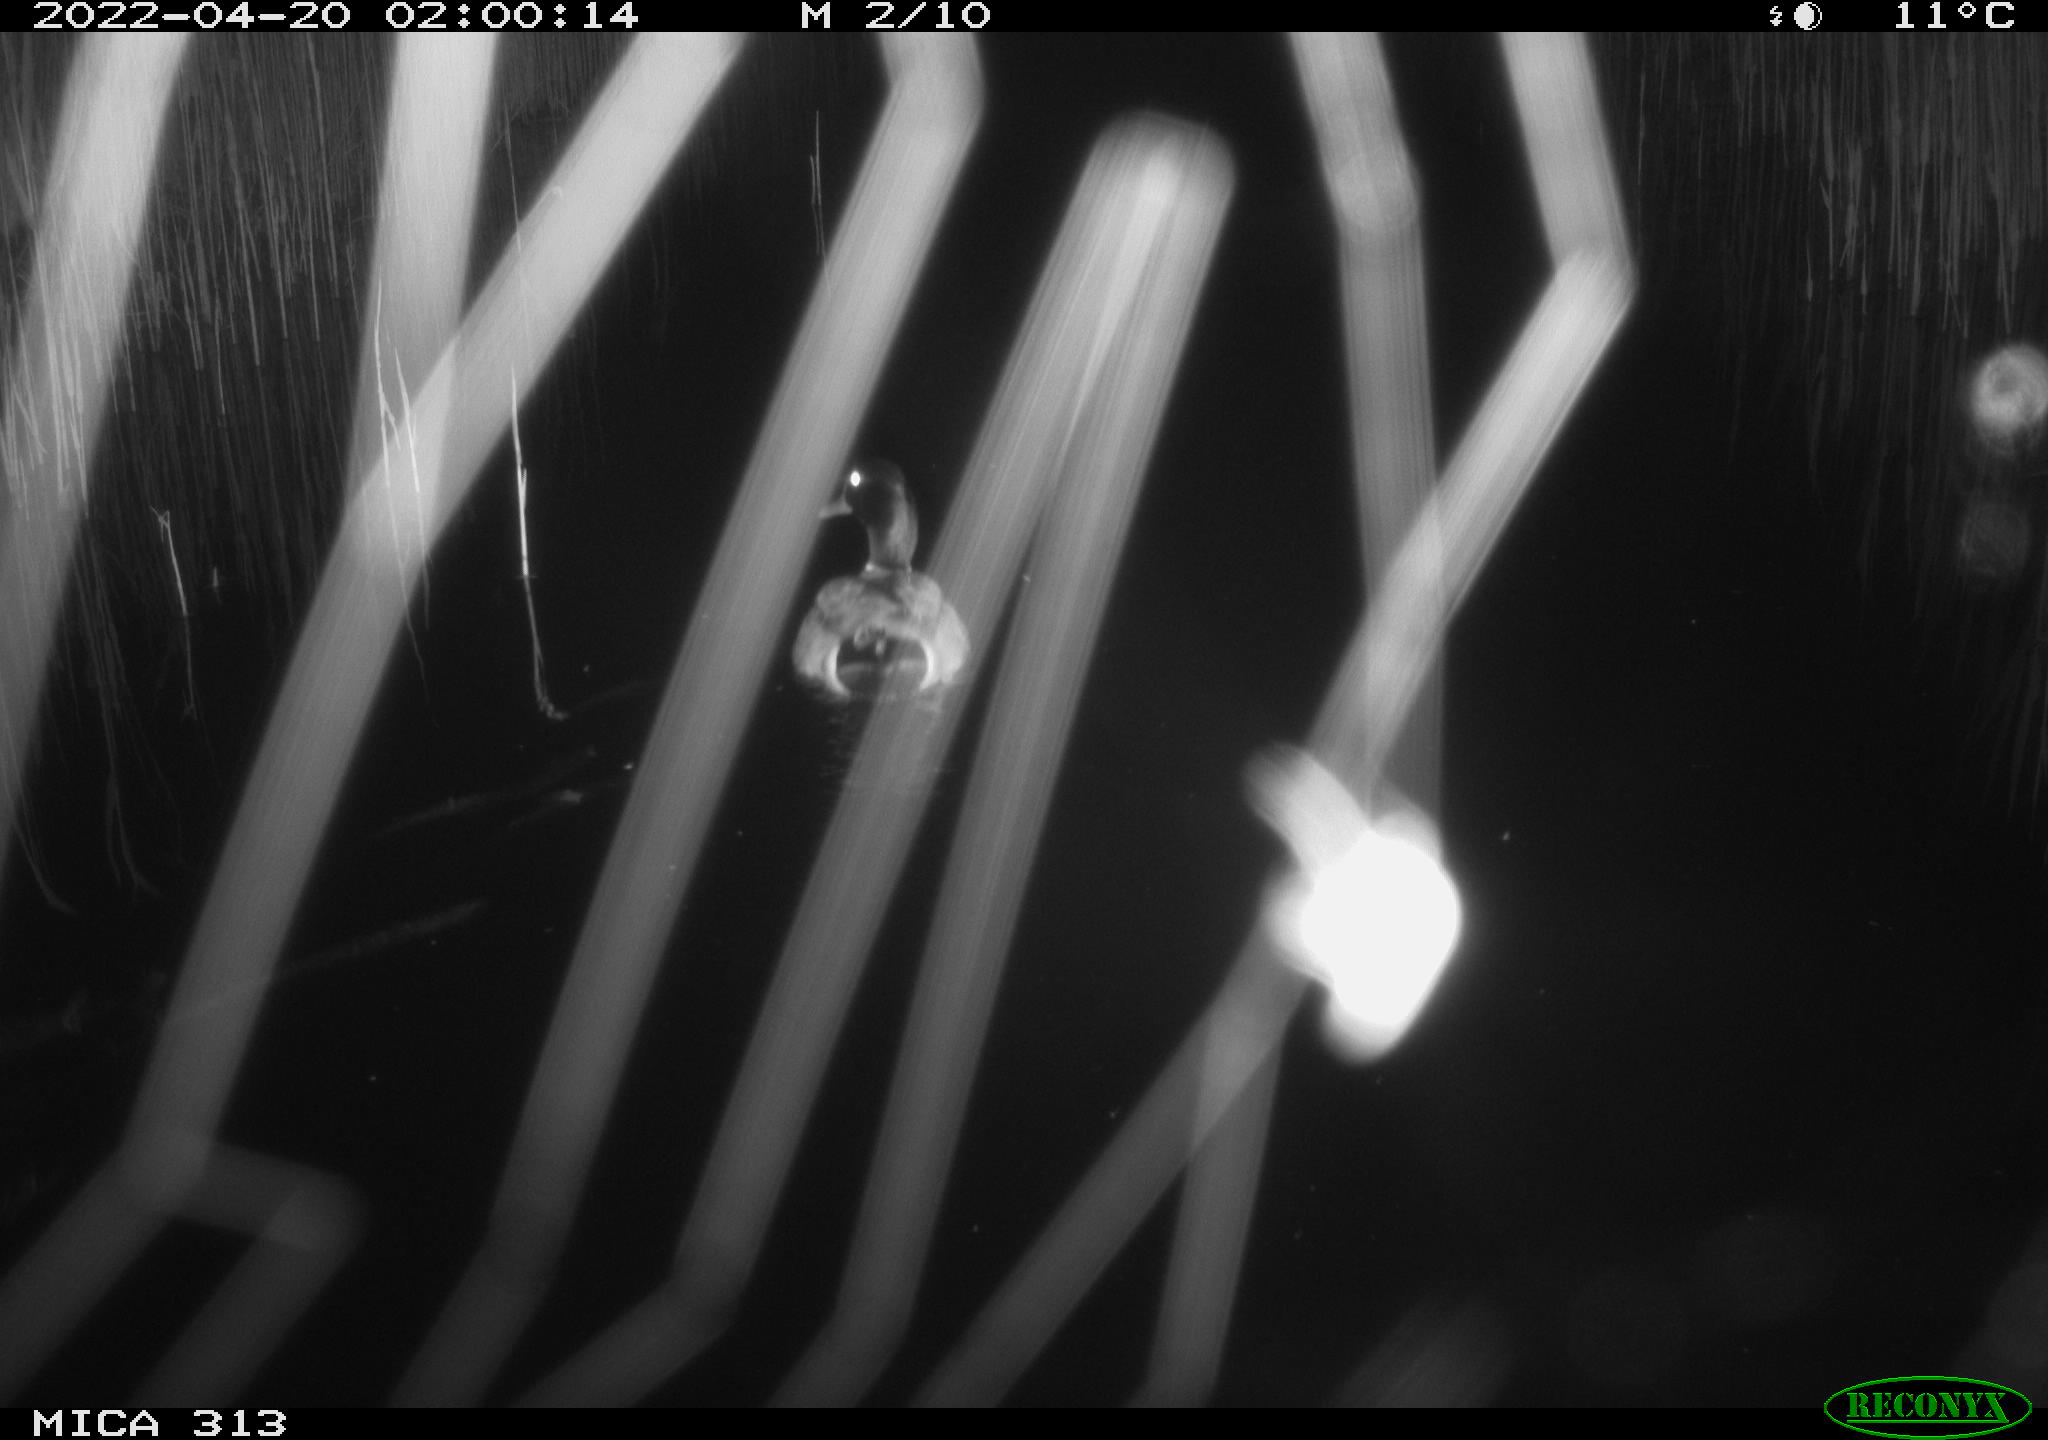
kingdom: Animalia
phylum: Chordata
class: Aves
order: Anseriformes
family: Anatidae
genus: Anas
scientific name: Anas platyrhynchos
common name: Mallard
